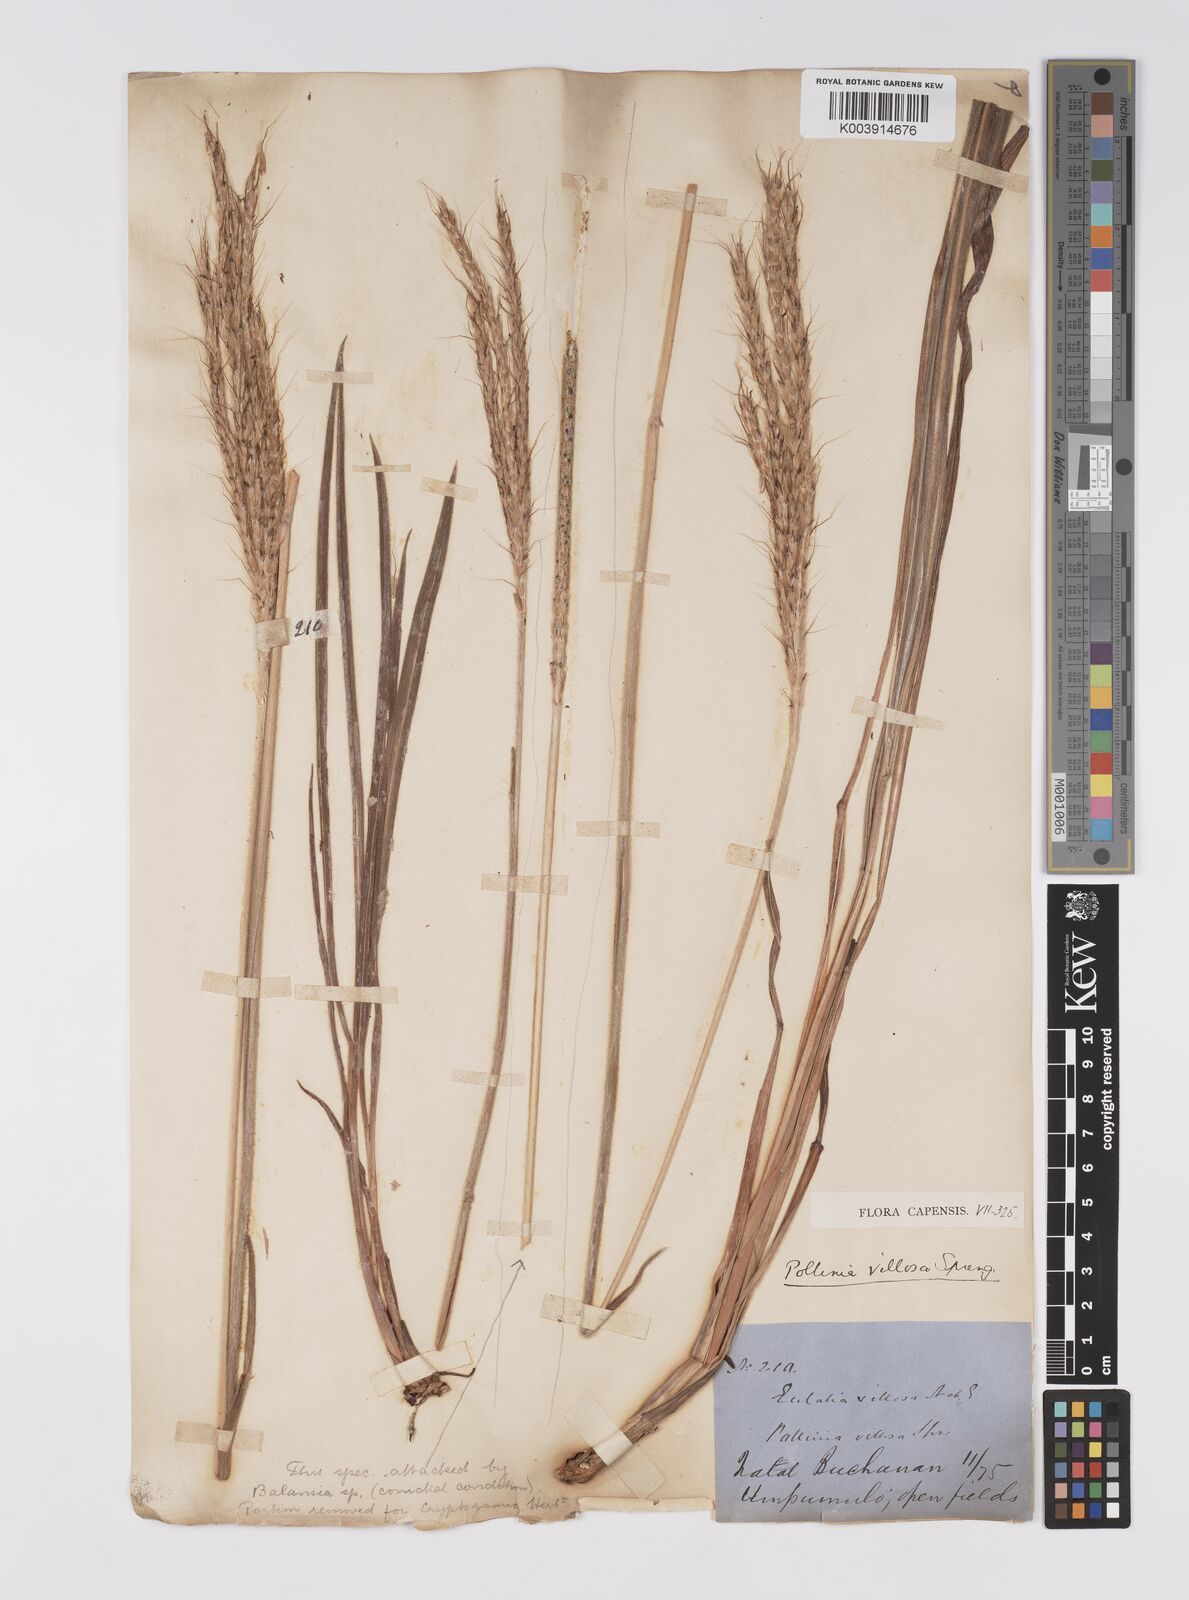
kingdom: Plantae
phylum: Tracheophyta
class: Liliopsida
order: Poales
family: Poaceae
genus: Eulalia
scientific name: Eulalia villosa
